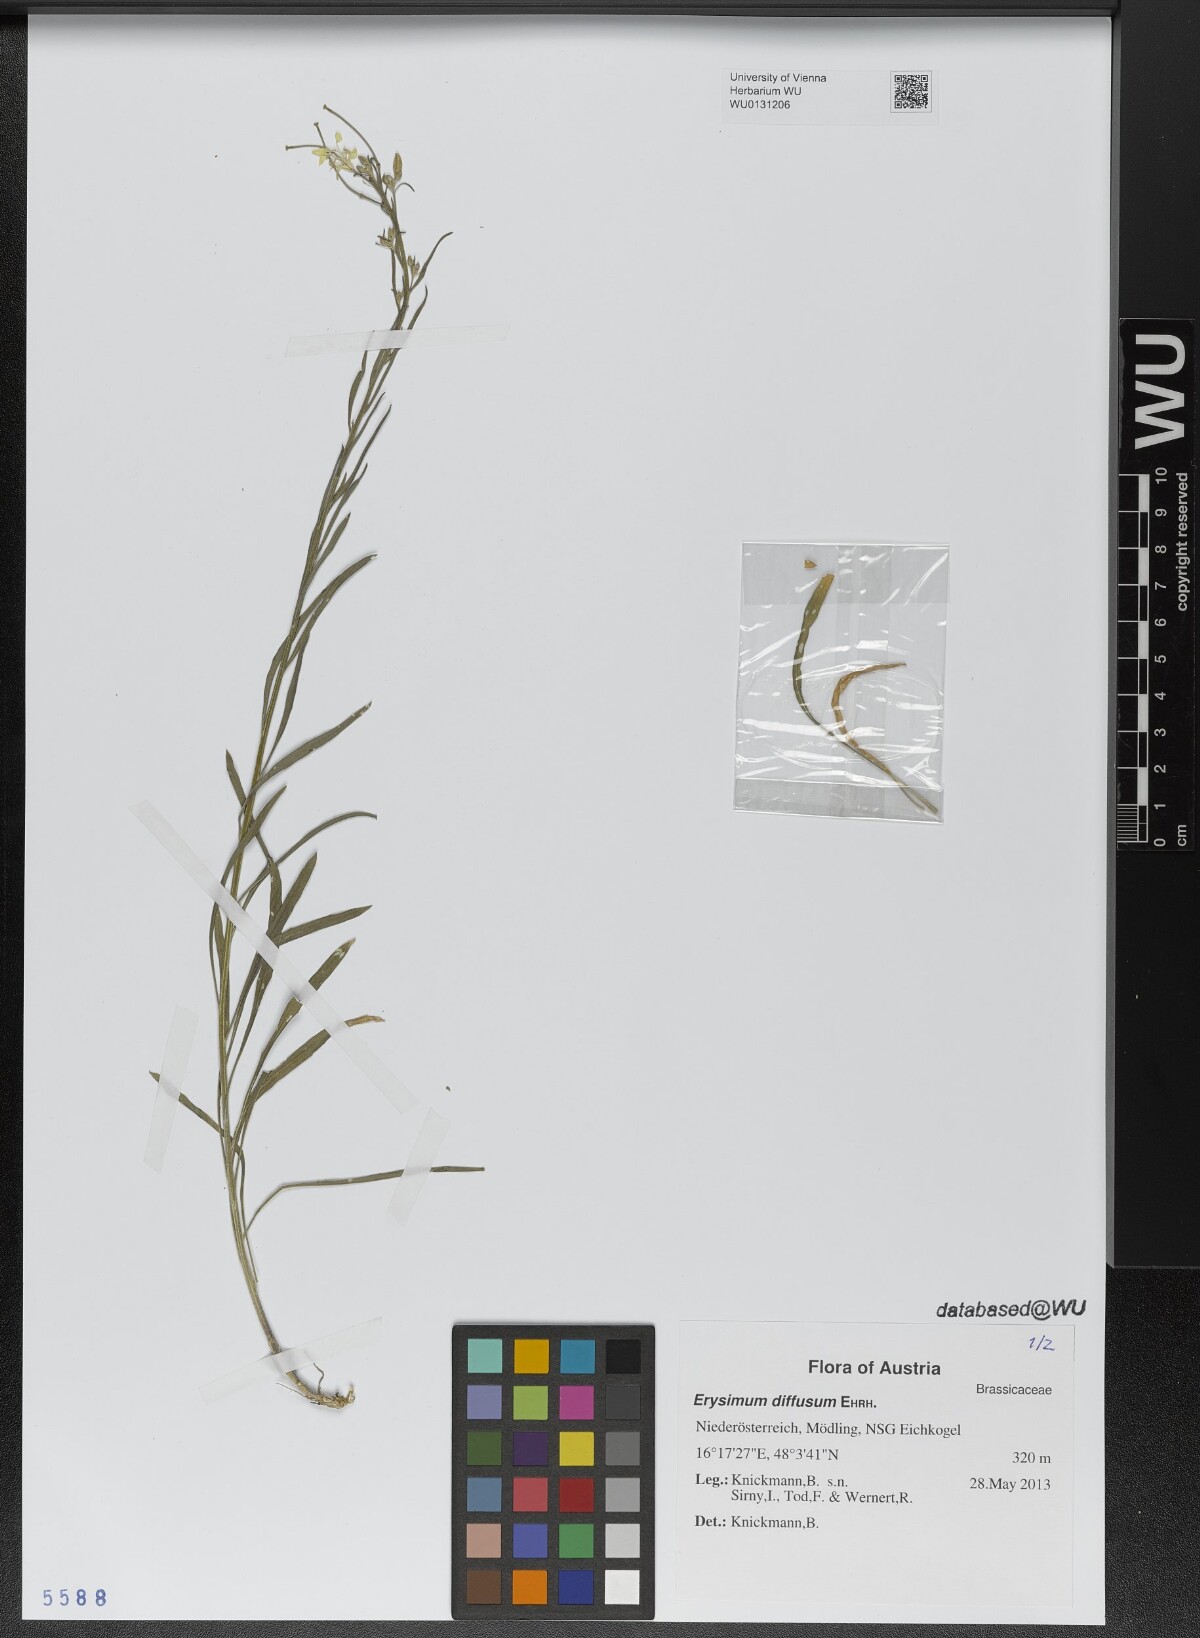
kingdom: Plantae
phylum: Tracheophyta
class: Magnoliopsida
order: Brassicales
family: Brassicaceae
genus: Erysimum
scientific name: Erysimum diffusum
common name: Diffuse wallflower
